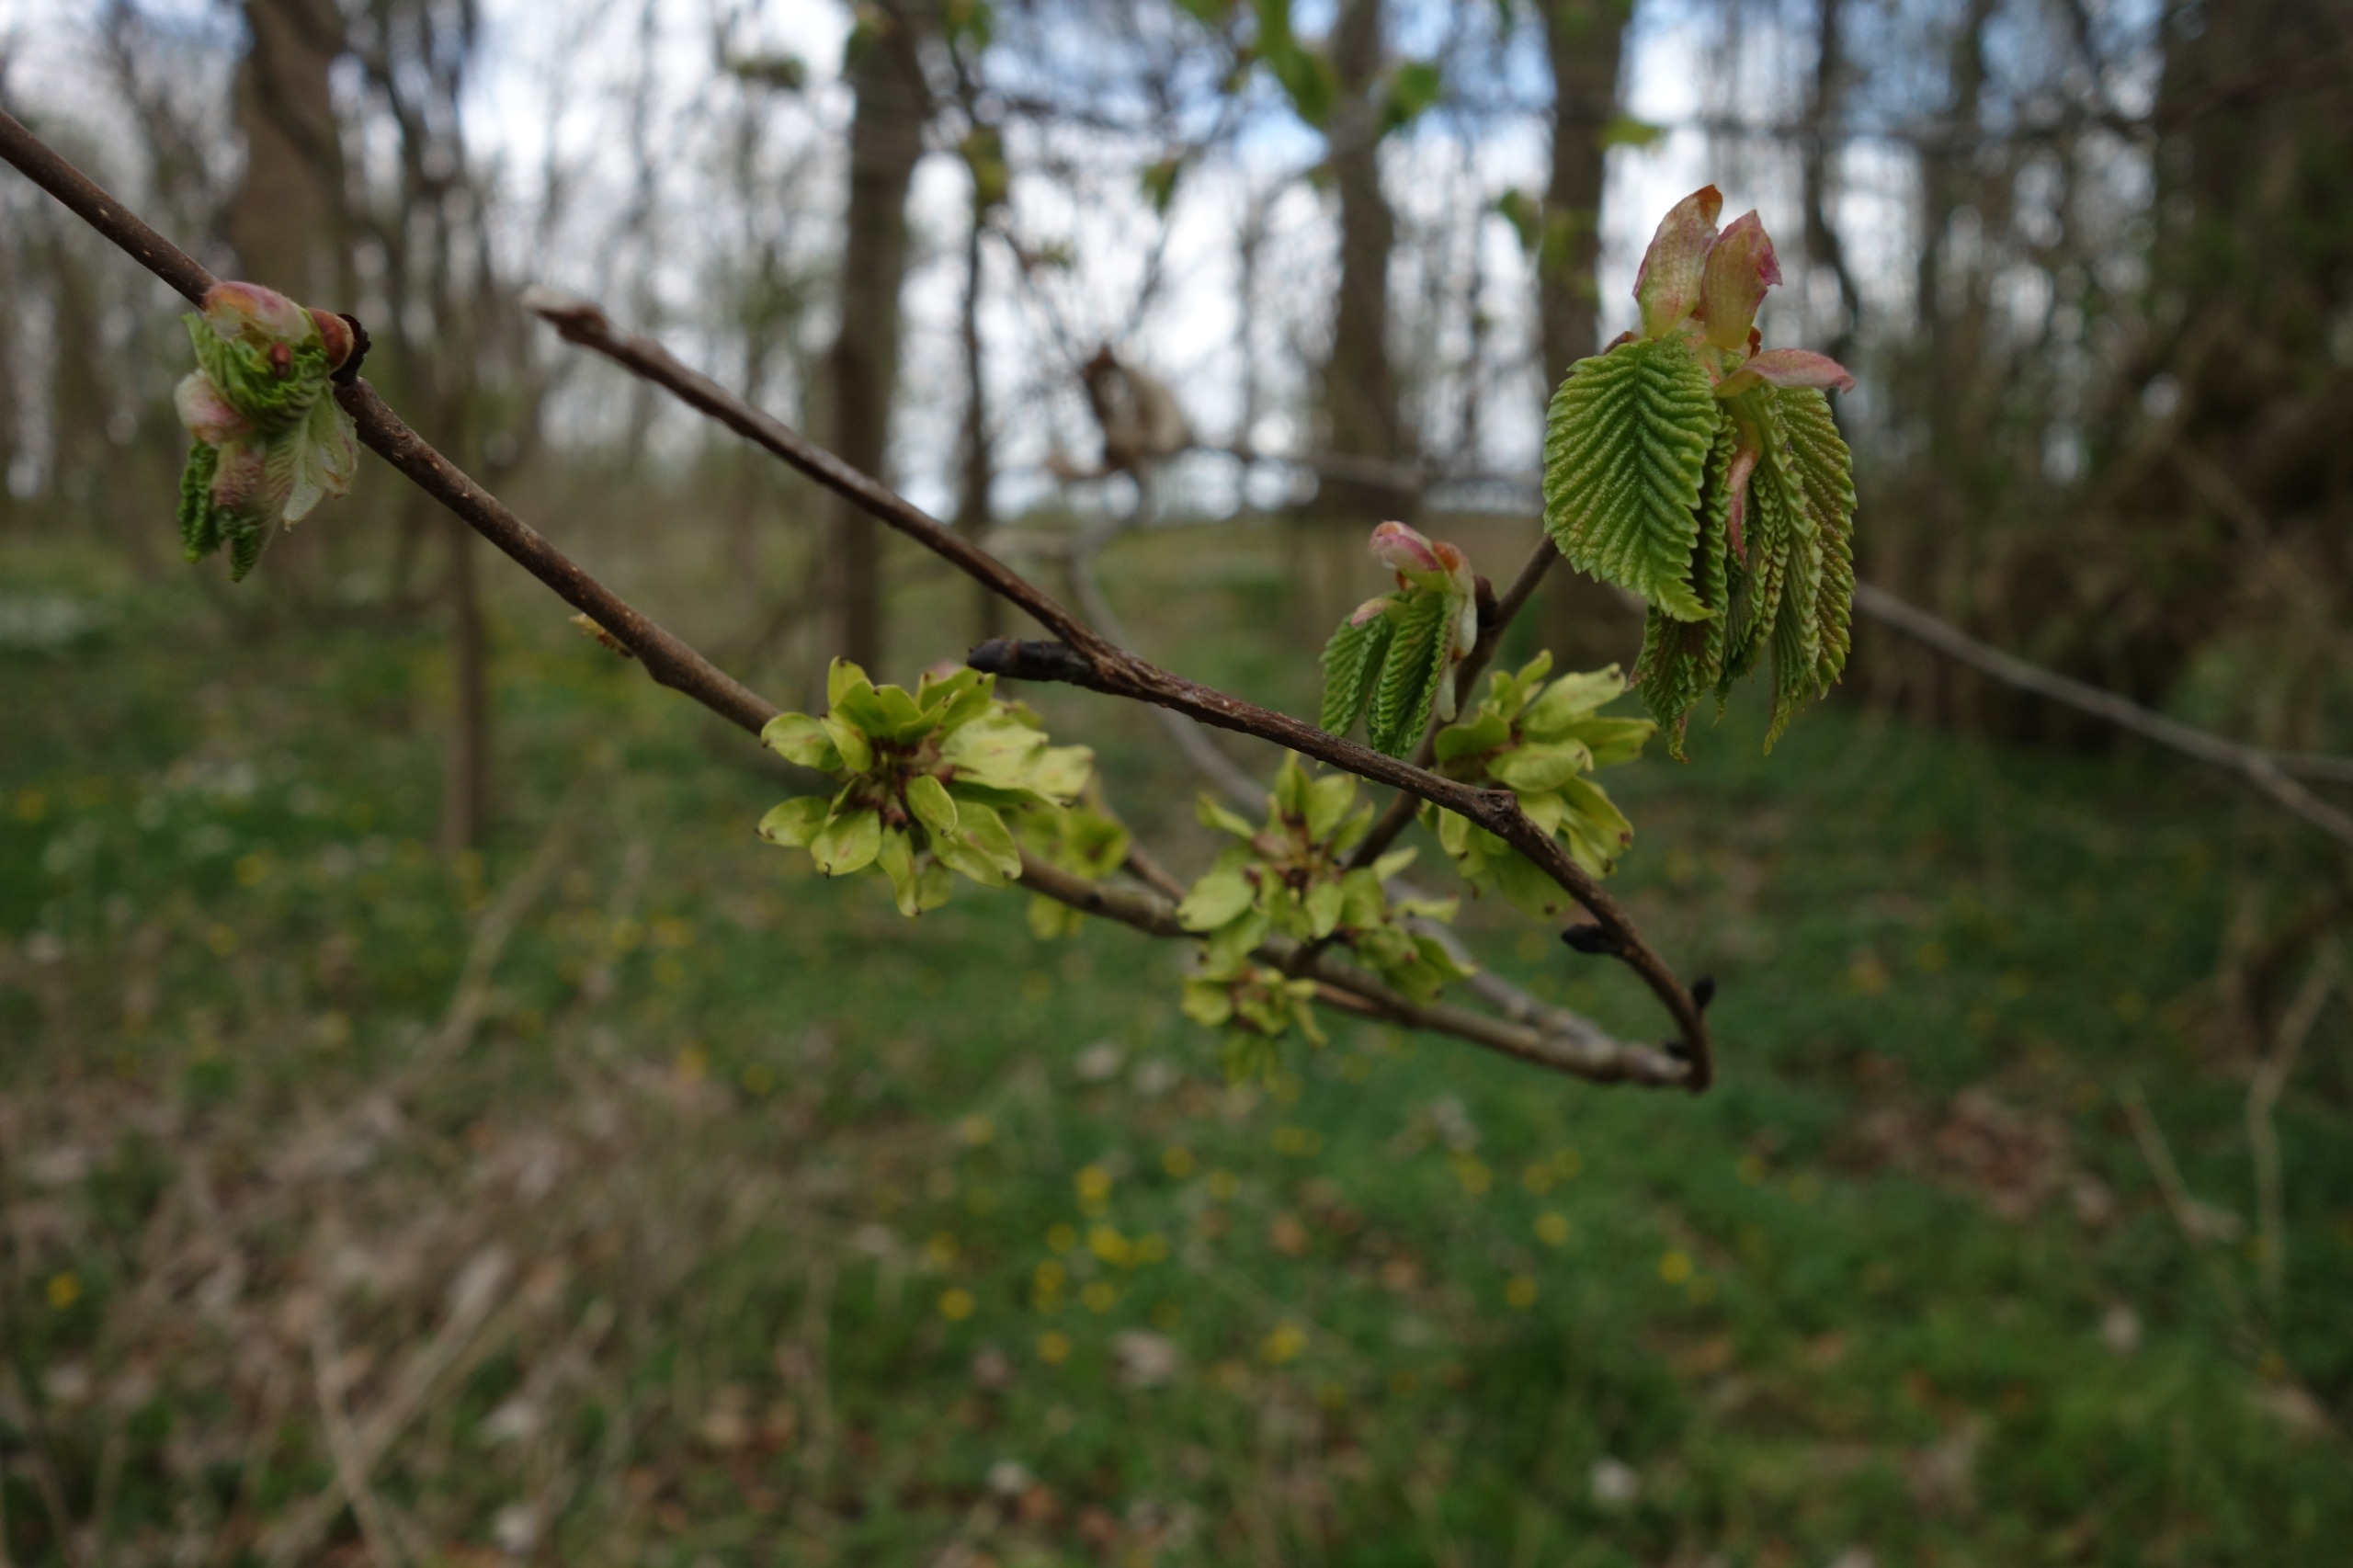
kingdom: Plantae
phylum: Tracheophyta
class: Magnoliopsida
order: Rosales
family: Ulmaceae
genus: Ulmus
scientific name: Ulmus glabra
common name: Skov-elm/storbladet elm
